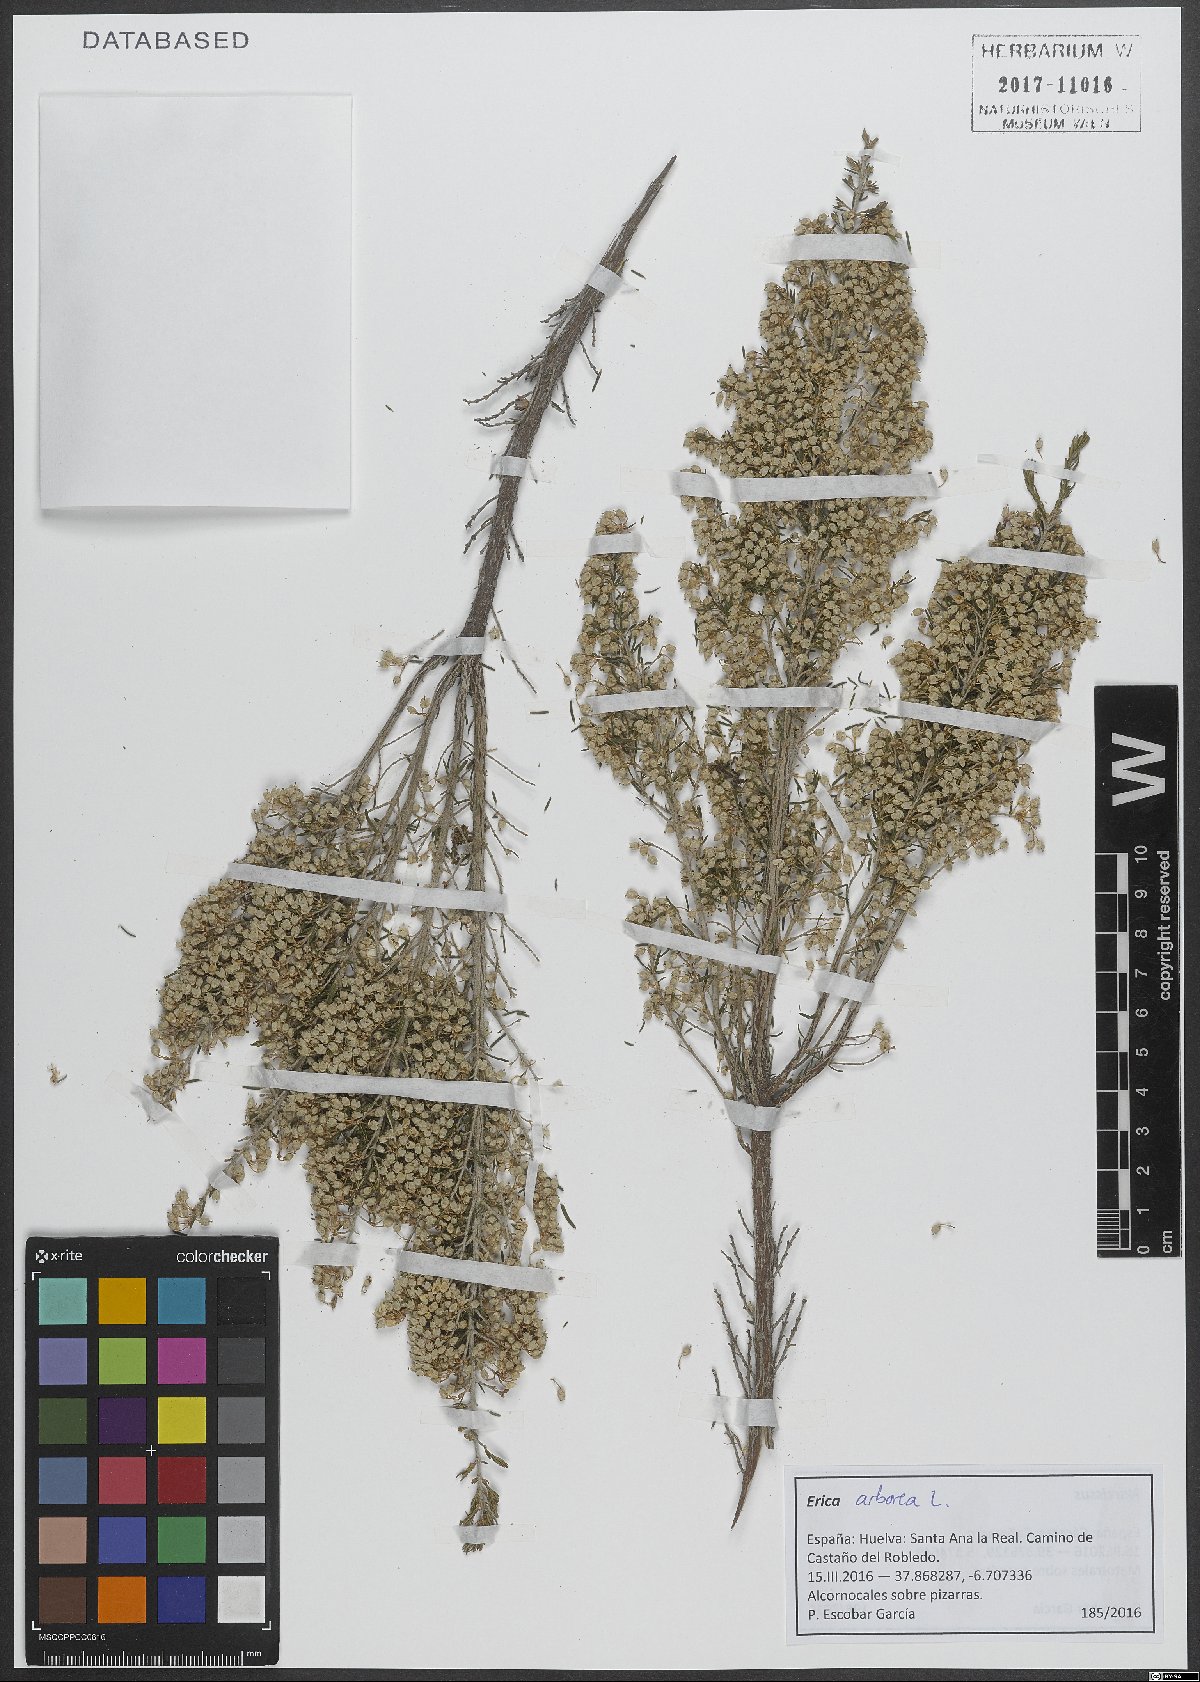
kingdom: Plantae
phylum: Tracheophyta
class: Magnoliopsida
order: Ericales
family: Ericaceae
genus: Erica
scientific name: Erica arborea
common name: Tree heath
